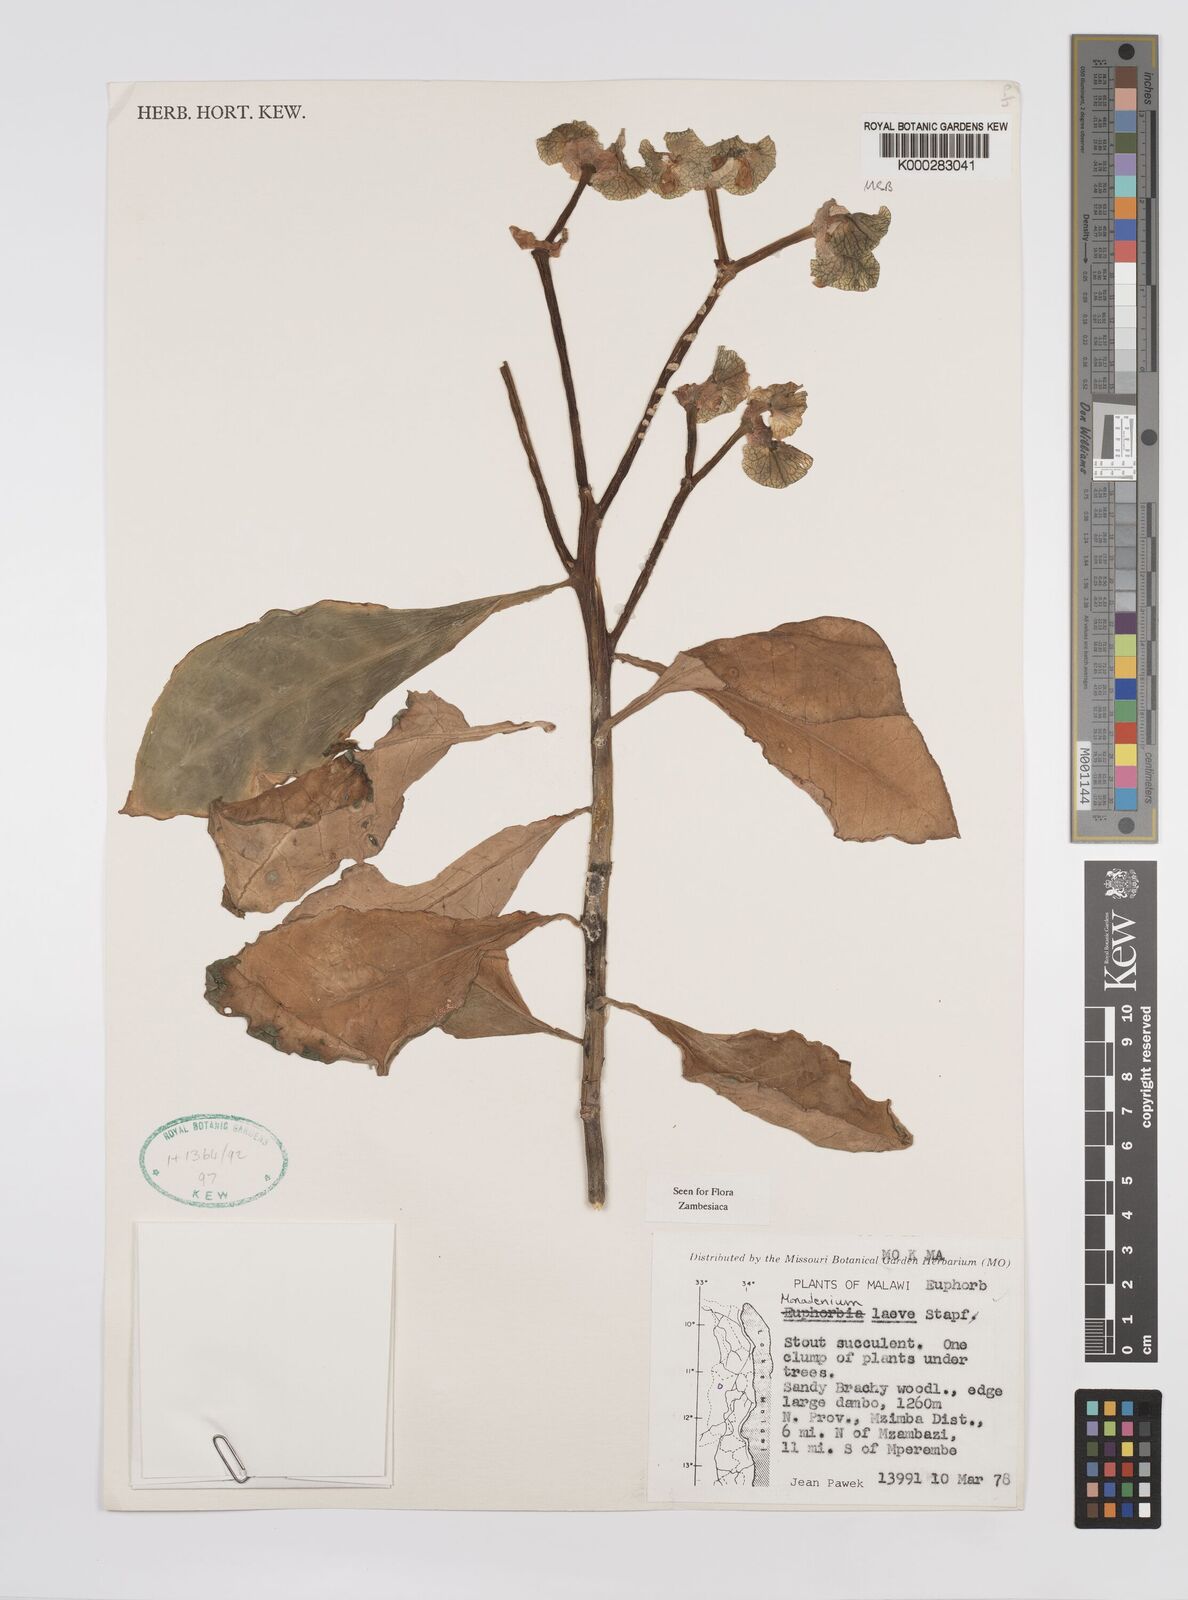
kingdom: Plantae
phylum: Tracheophyta
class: Magnoliopsida
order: Malpighiales
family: Euphorbiaceae
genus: Euphorbia
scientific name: Euphorbia pseudolaevis
